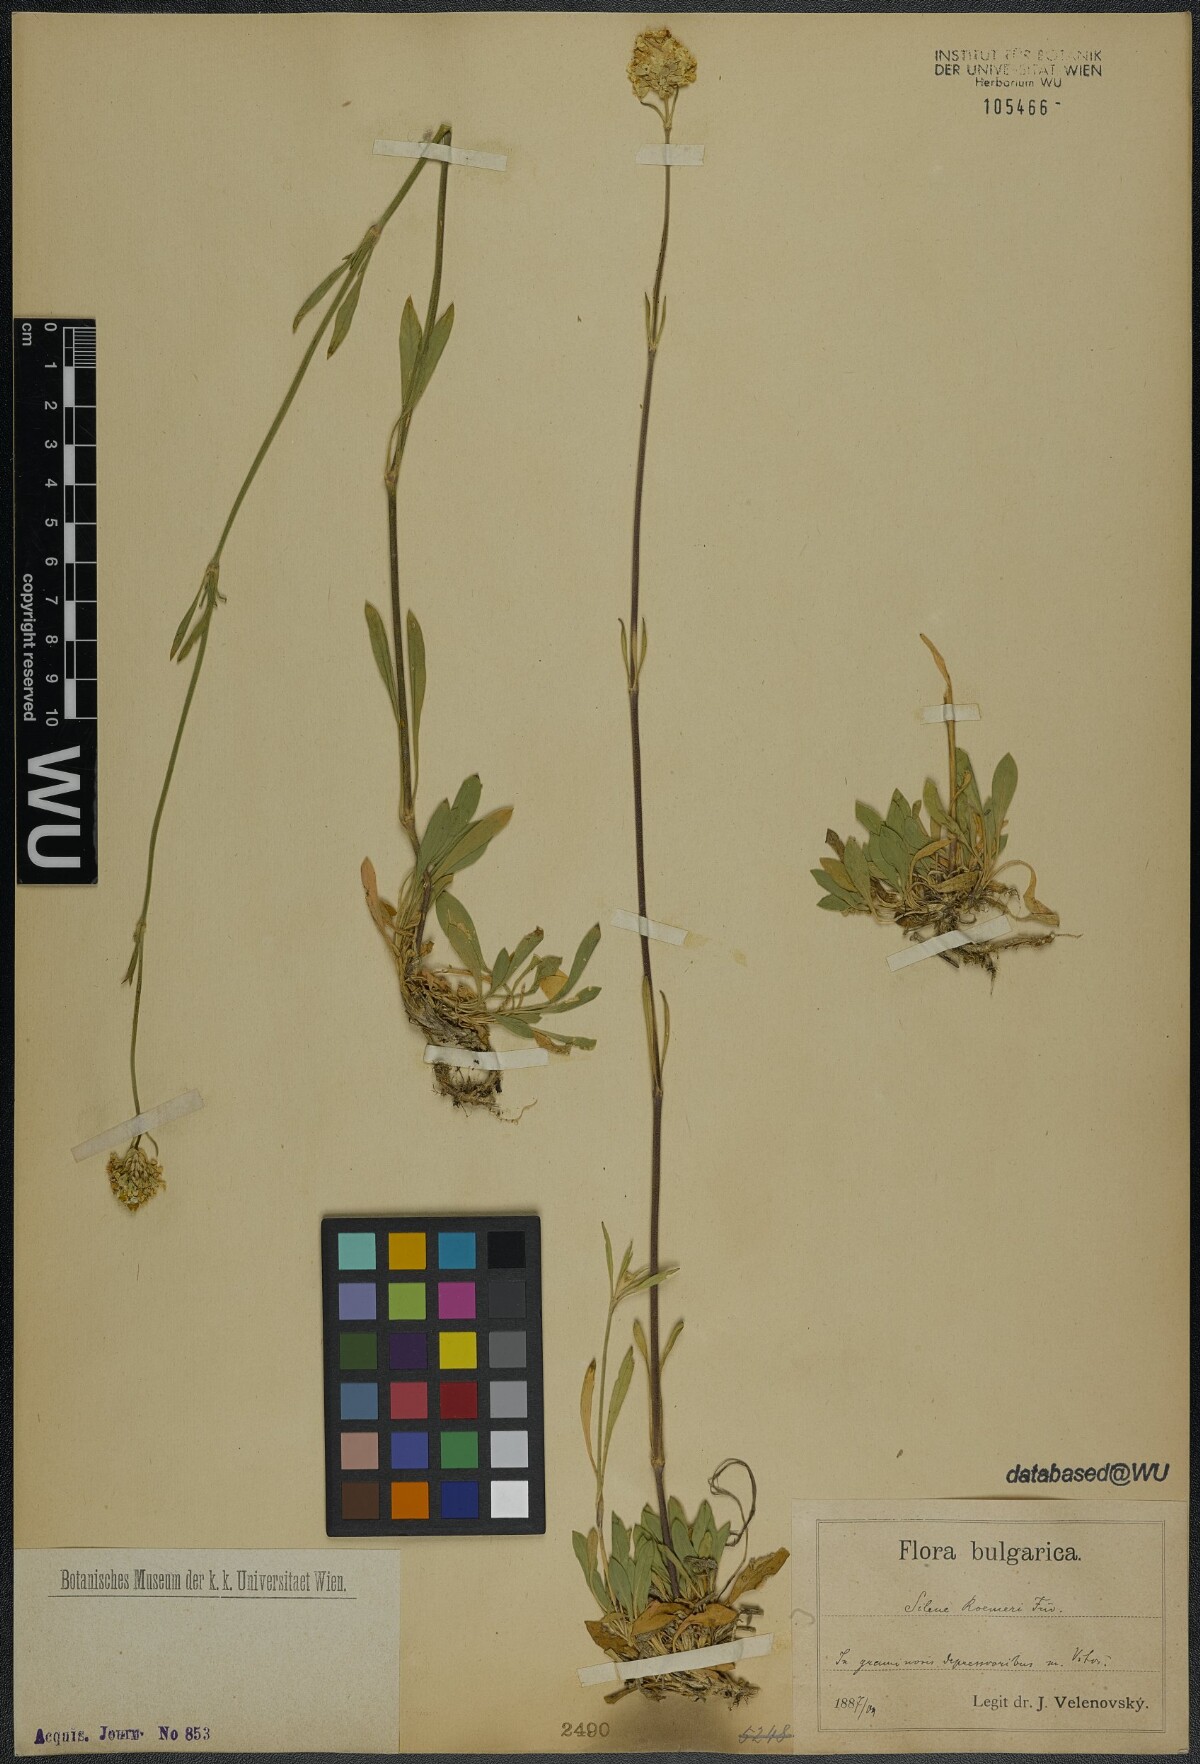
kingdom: Plantae
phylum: Tracheophyta
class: Magnoliopsida
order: Caryophyllales
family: Caryophyllaceae
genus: Silene
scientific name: Silene roemeri
